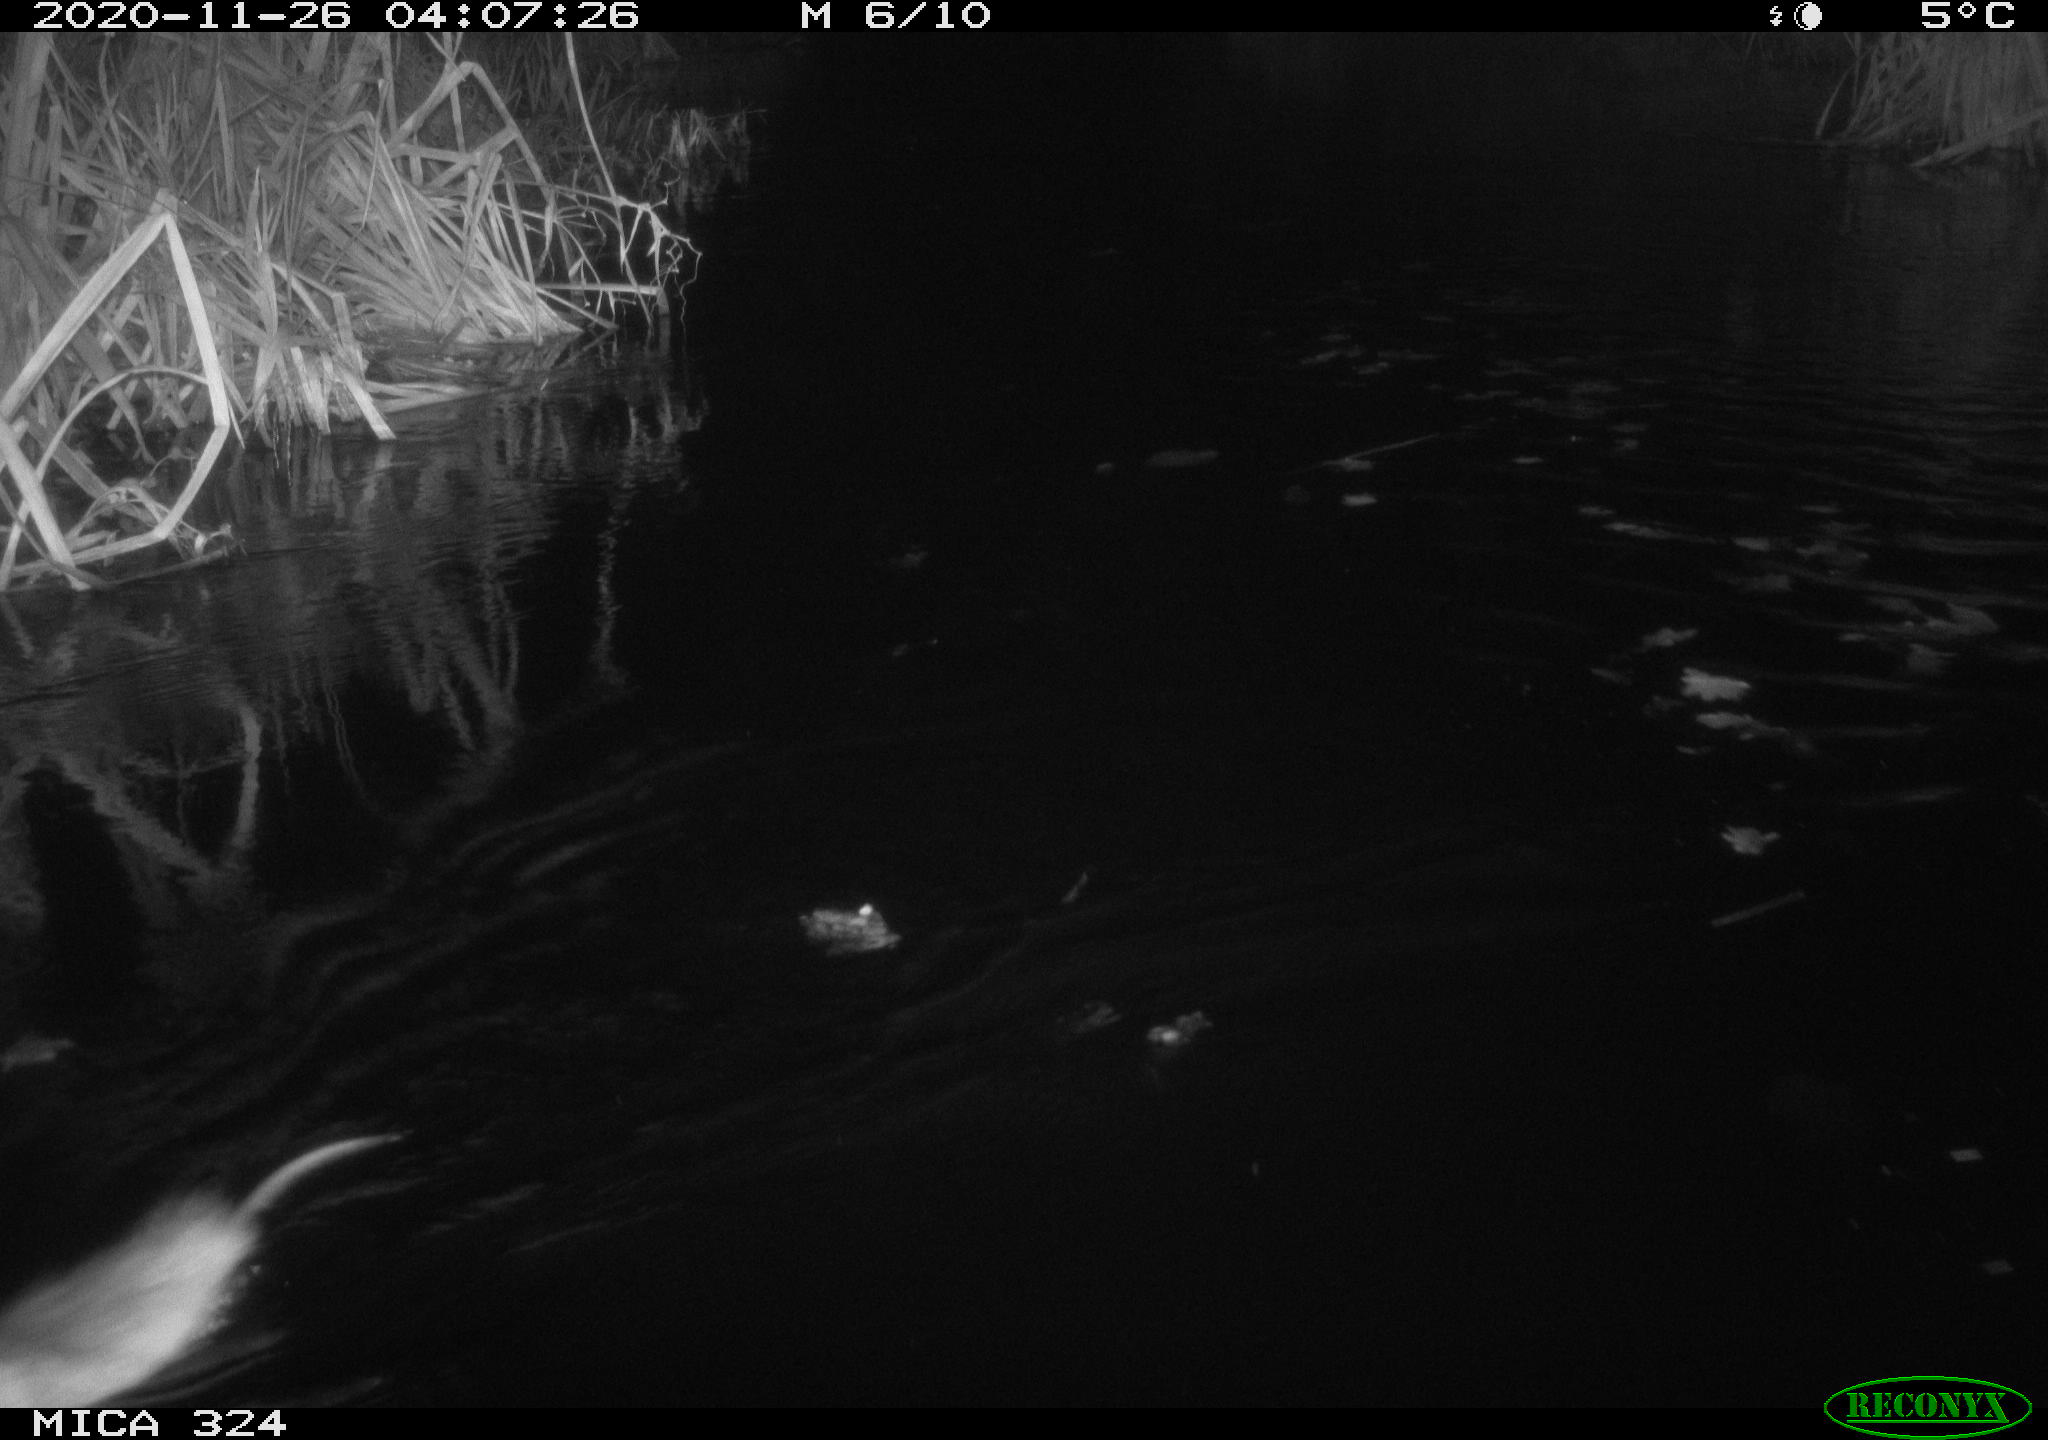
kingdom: Animalia
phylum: Chordata
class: Mammalia
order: Rodentia
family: Cricetidae
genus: Ondatra
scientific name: Ondatra zibethicus
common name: Muskrat
